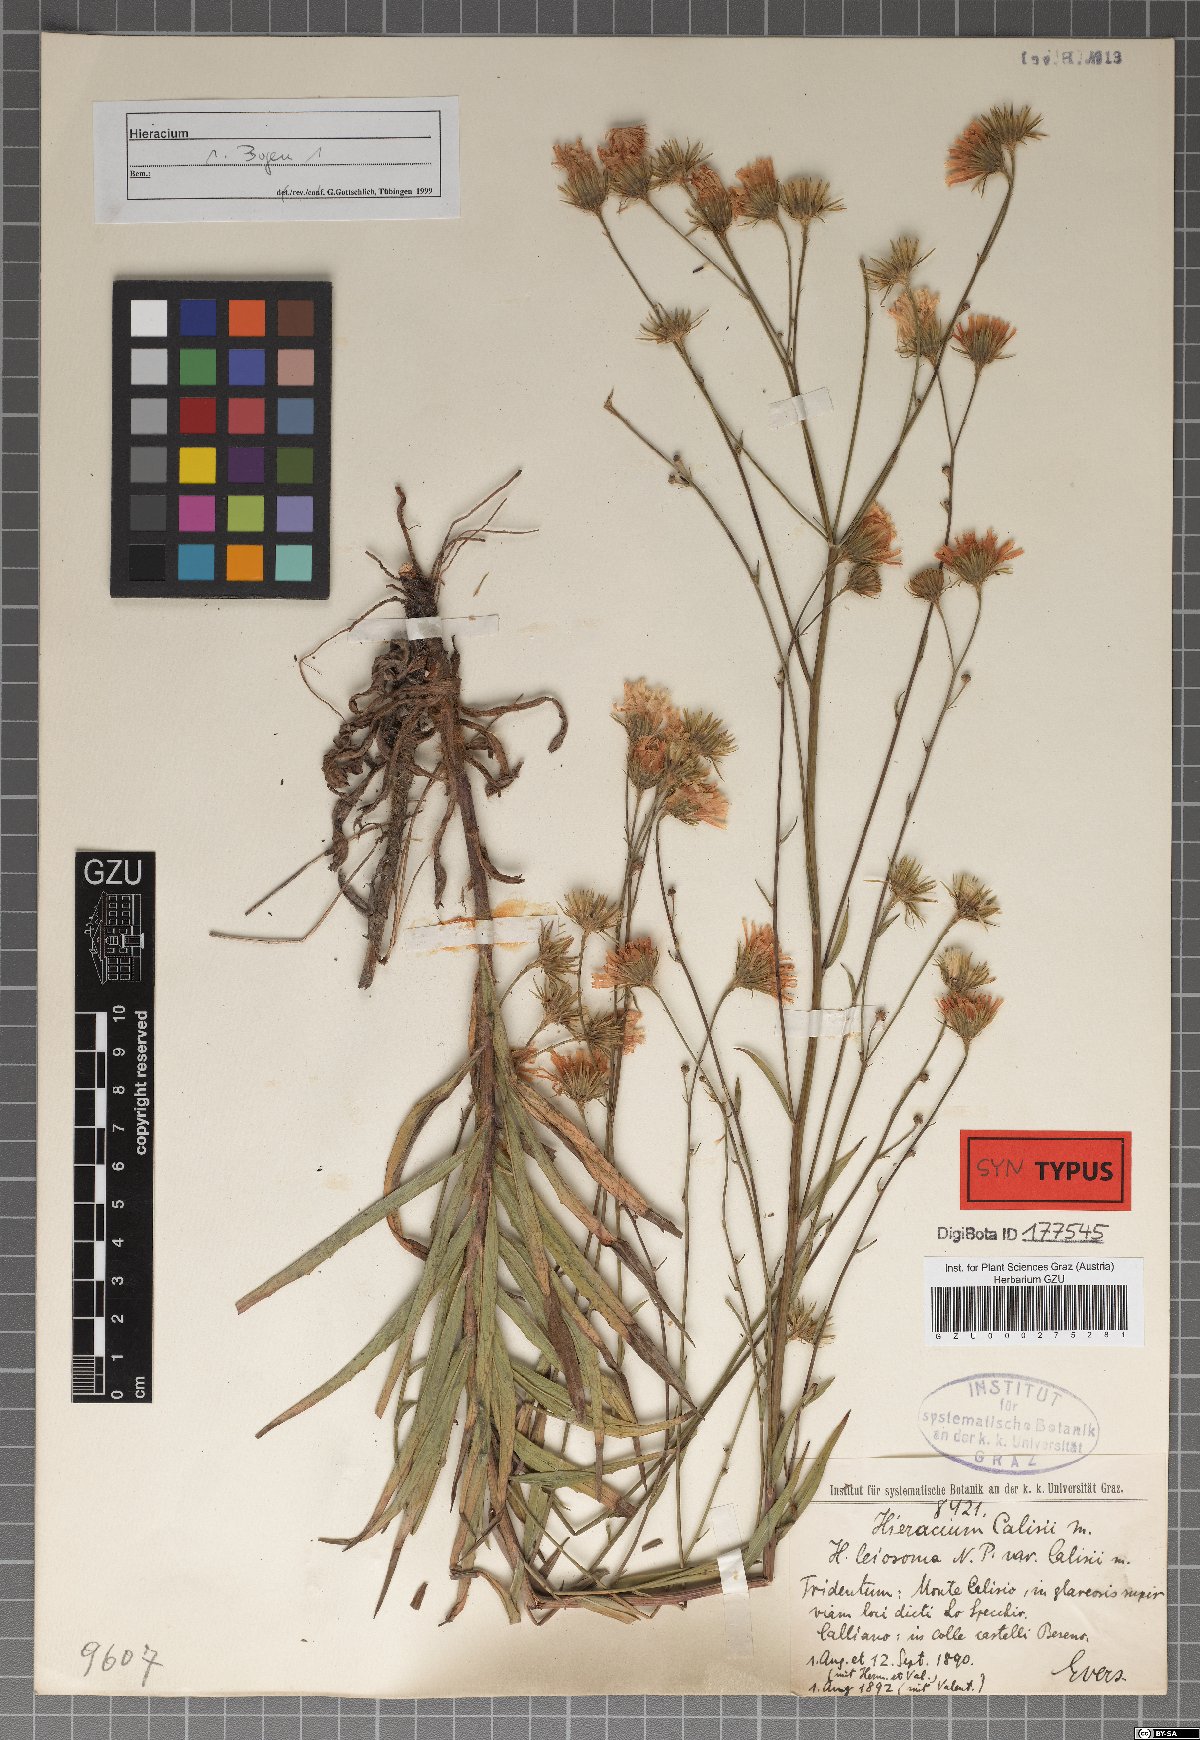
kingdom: Plantae
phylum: Tracheophyta
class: Magnoliopsida
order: Asterales
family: Asteraceae
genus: Hieracium
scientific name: Hieracium leiocephalum
